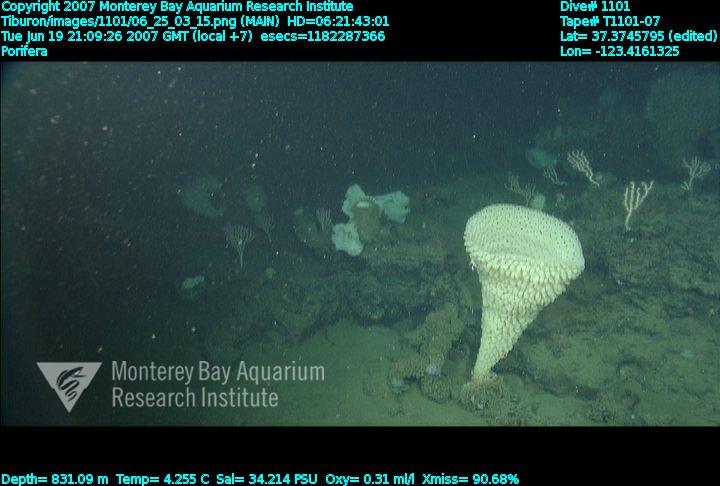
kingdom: Animalia
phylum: Porifera
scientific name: Porifera
